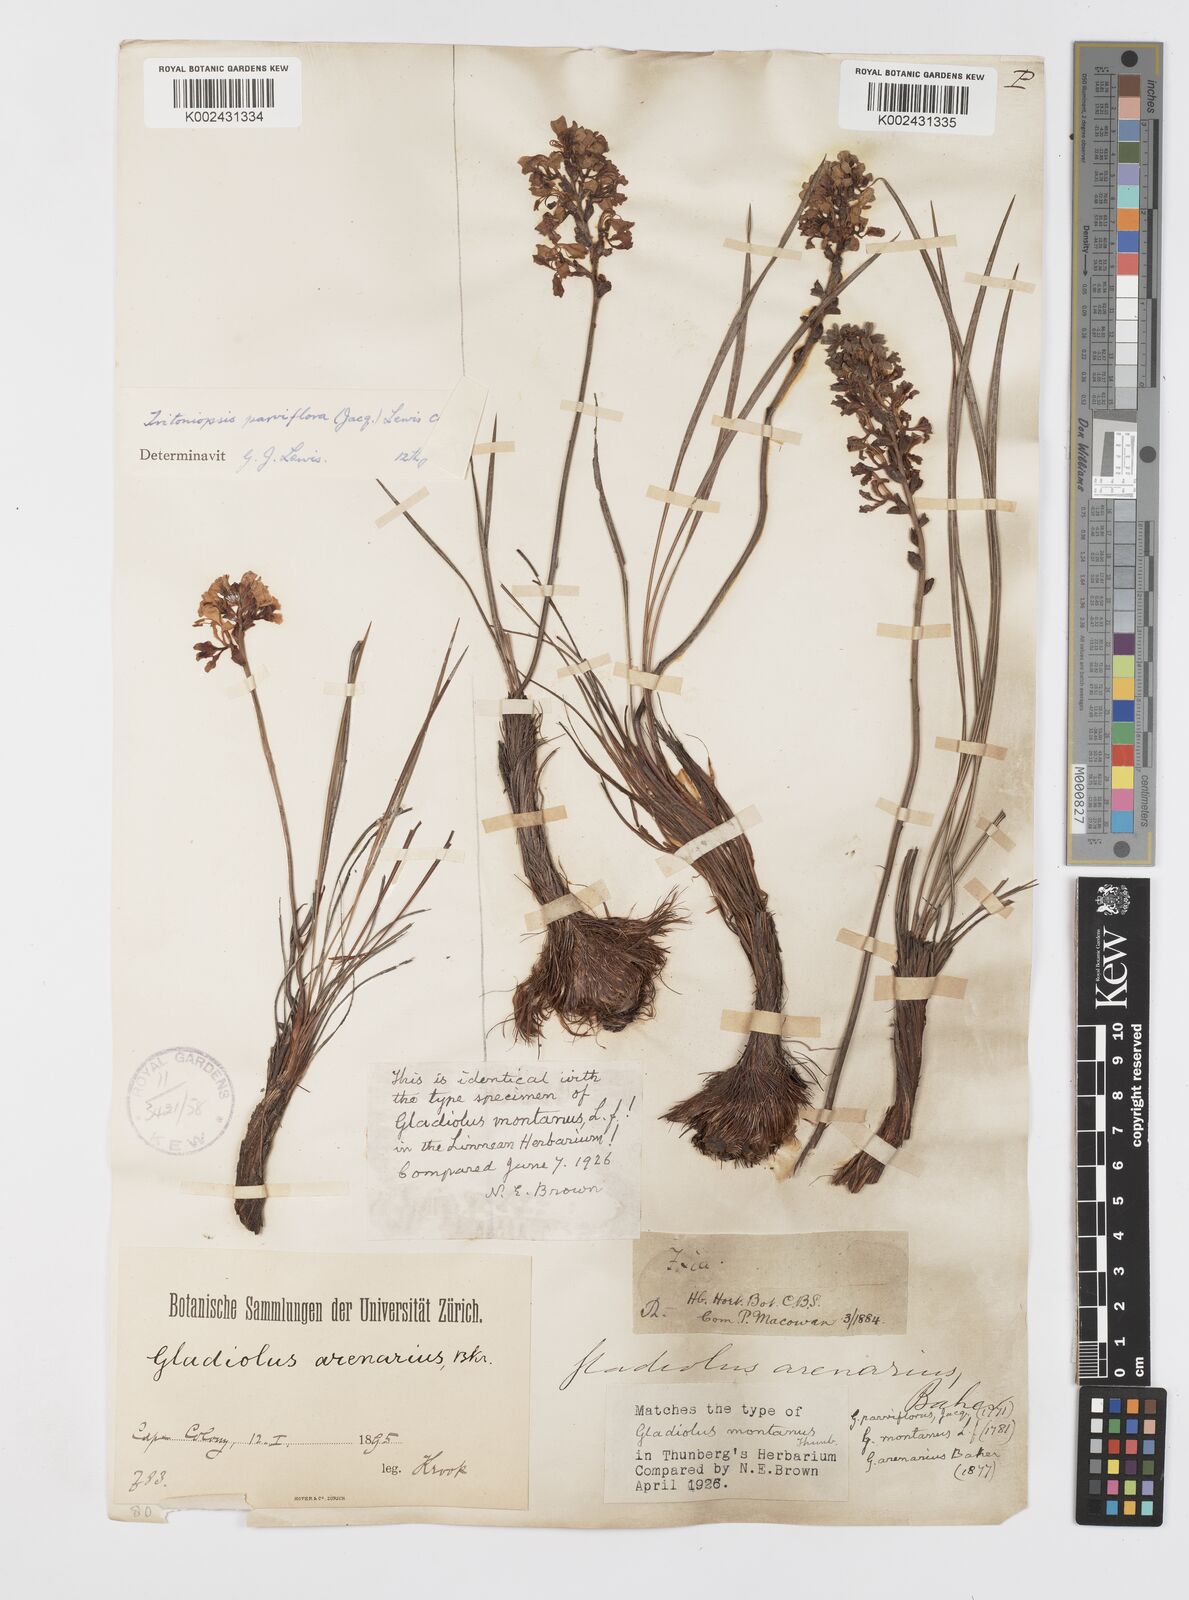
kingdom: Plantae
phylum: Tracheophyta
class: Liliopsida
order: Asparagales
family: Iridaceae
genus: Tritoniopsis
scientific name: Tritoniopsis parviflora
